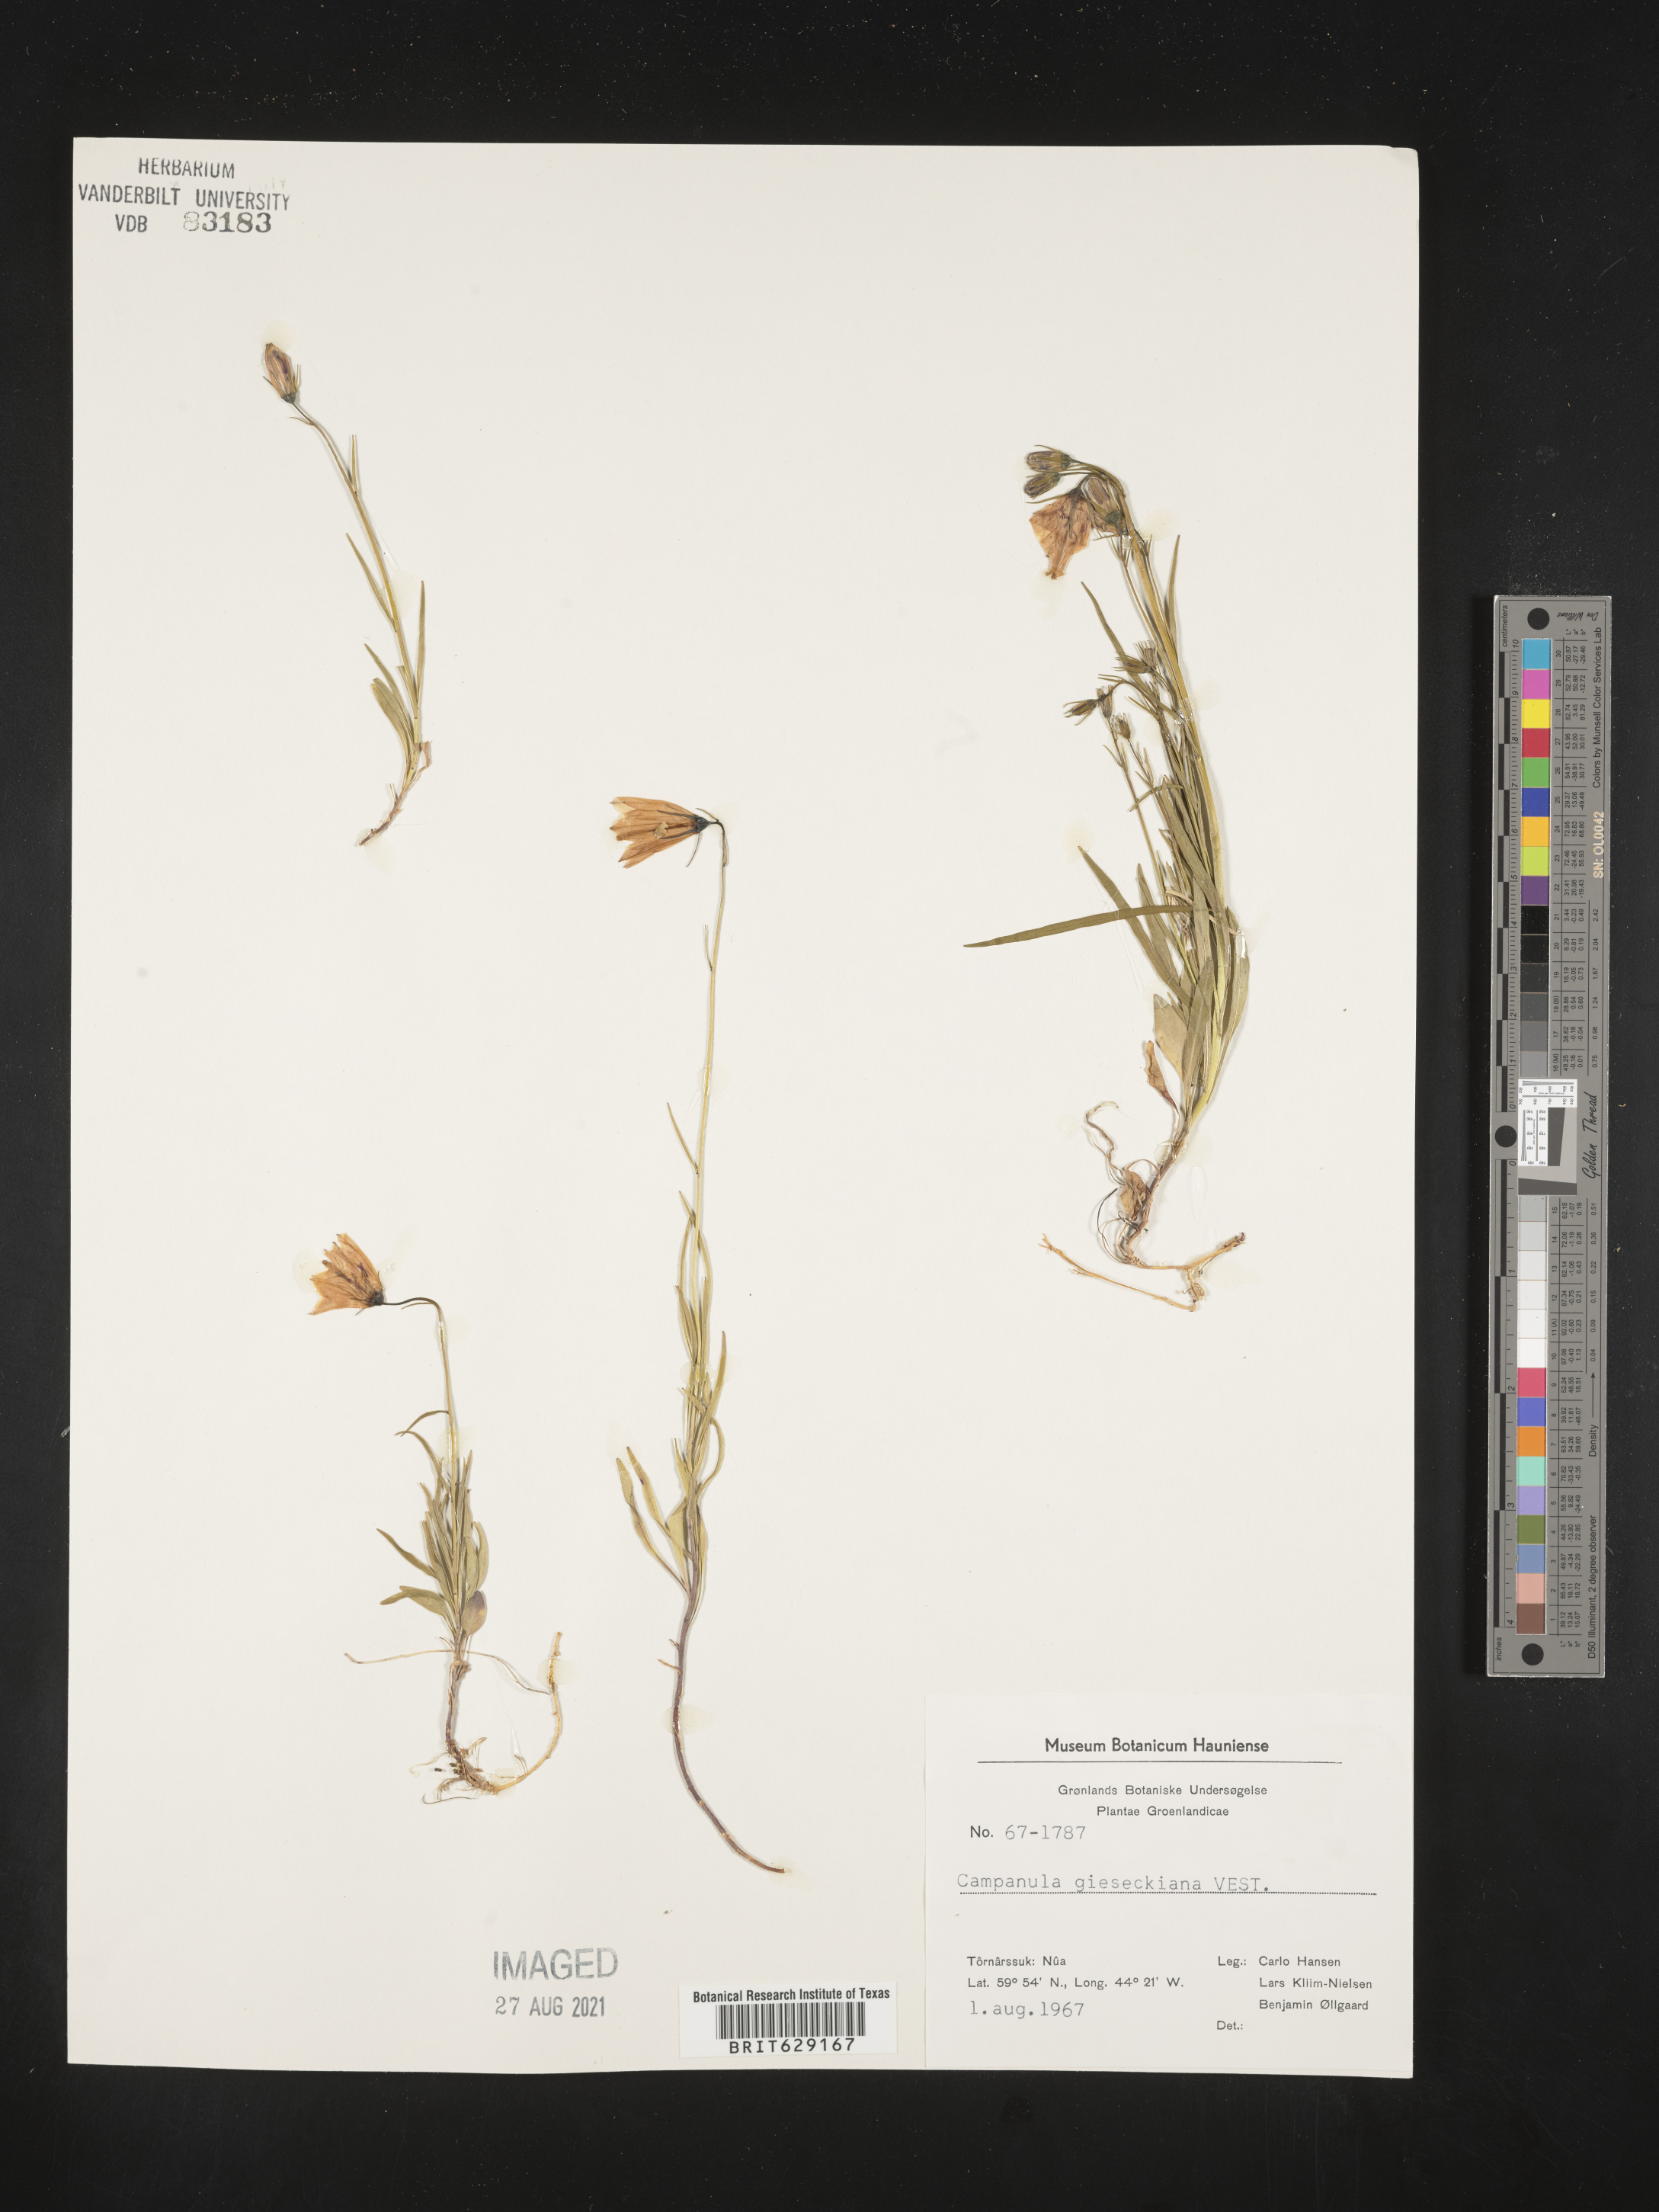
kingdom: Plantae
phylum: Tracheophyta
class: Magnoliopsida
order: Asterales
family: Campanulaceae
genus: Campanula
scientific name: Campanula rotundifolia
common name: Harebell
